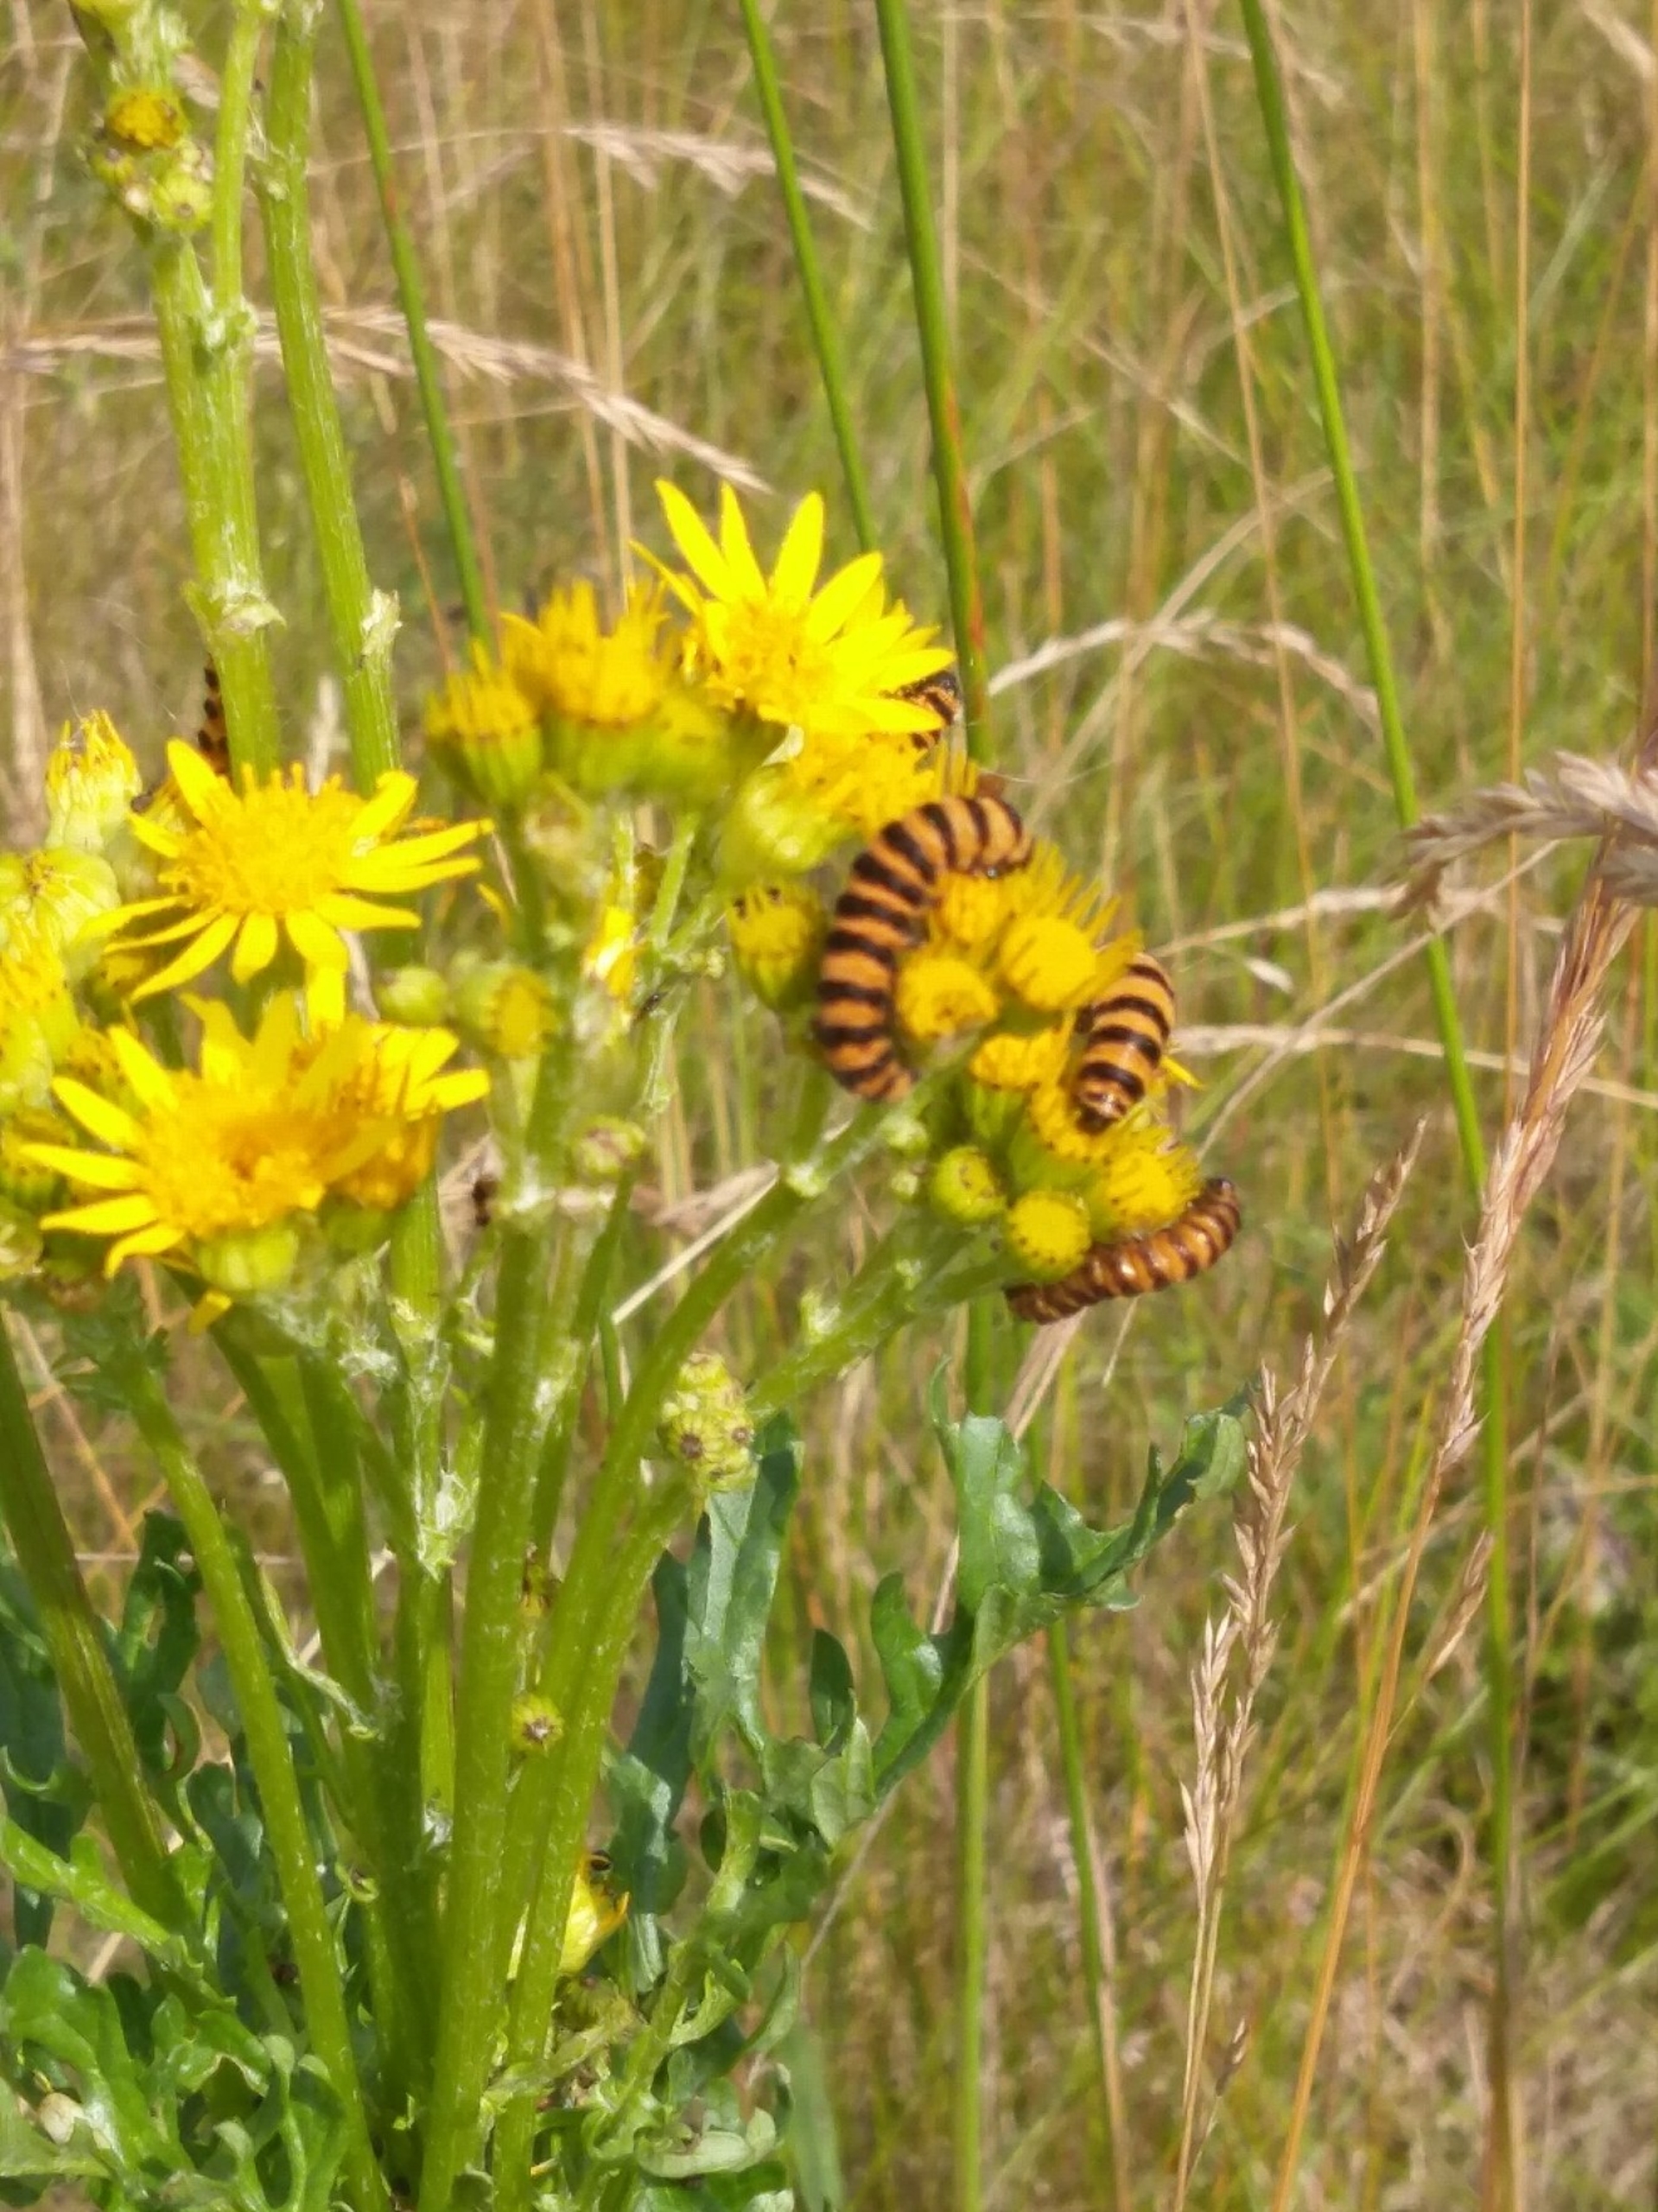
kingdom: Animalia
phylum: Arthropoda
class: Insecta
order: Lepidoptera
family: Erebidae
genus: Tyria
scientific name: Tyria jacobaeae
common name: Blodplet
